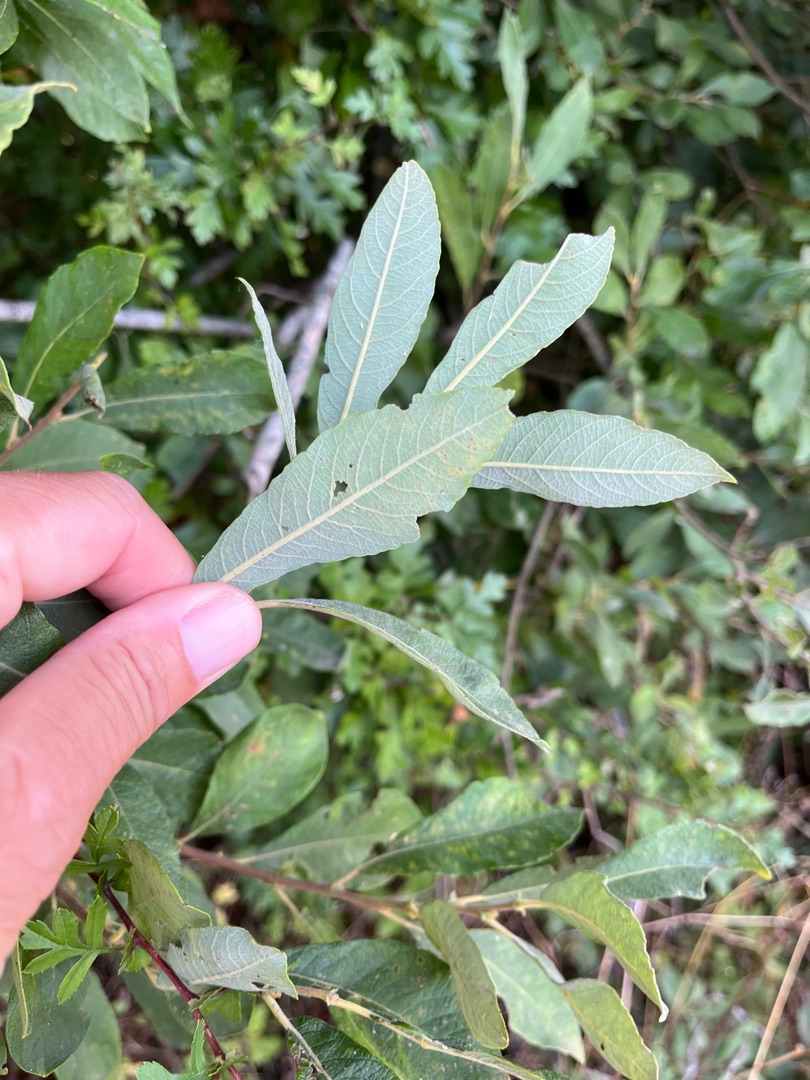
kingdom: Plantae
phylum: Tracheophyta
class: Magnoliopsida
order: Malpighiales
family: Salicaceae
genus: Salix
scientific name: Salix cinerea
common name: Grå-pil
